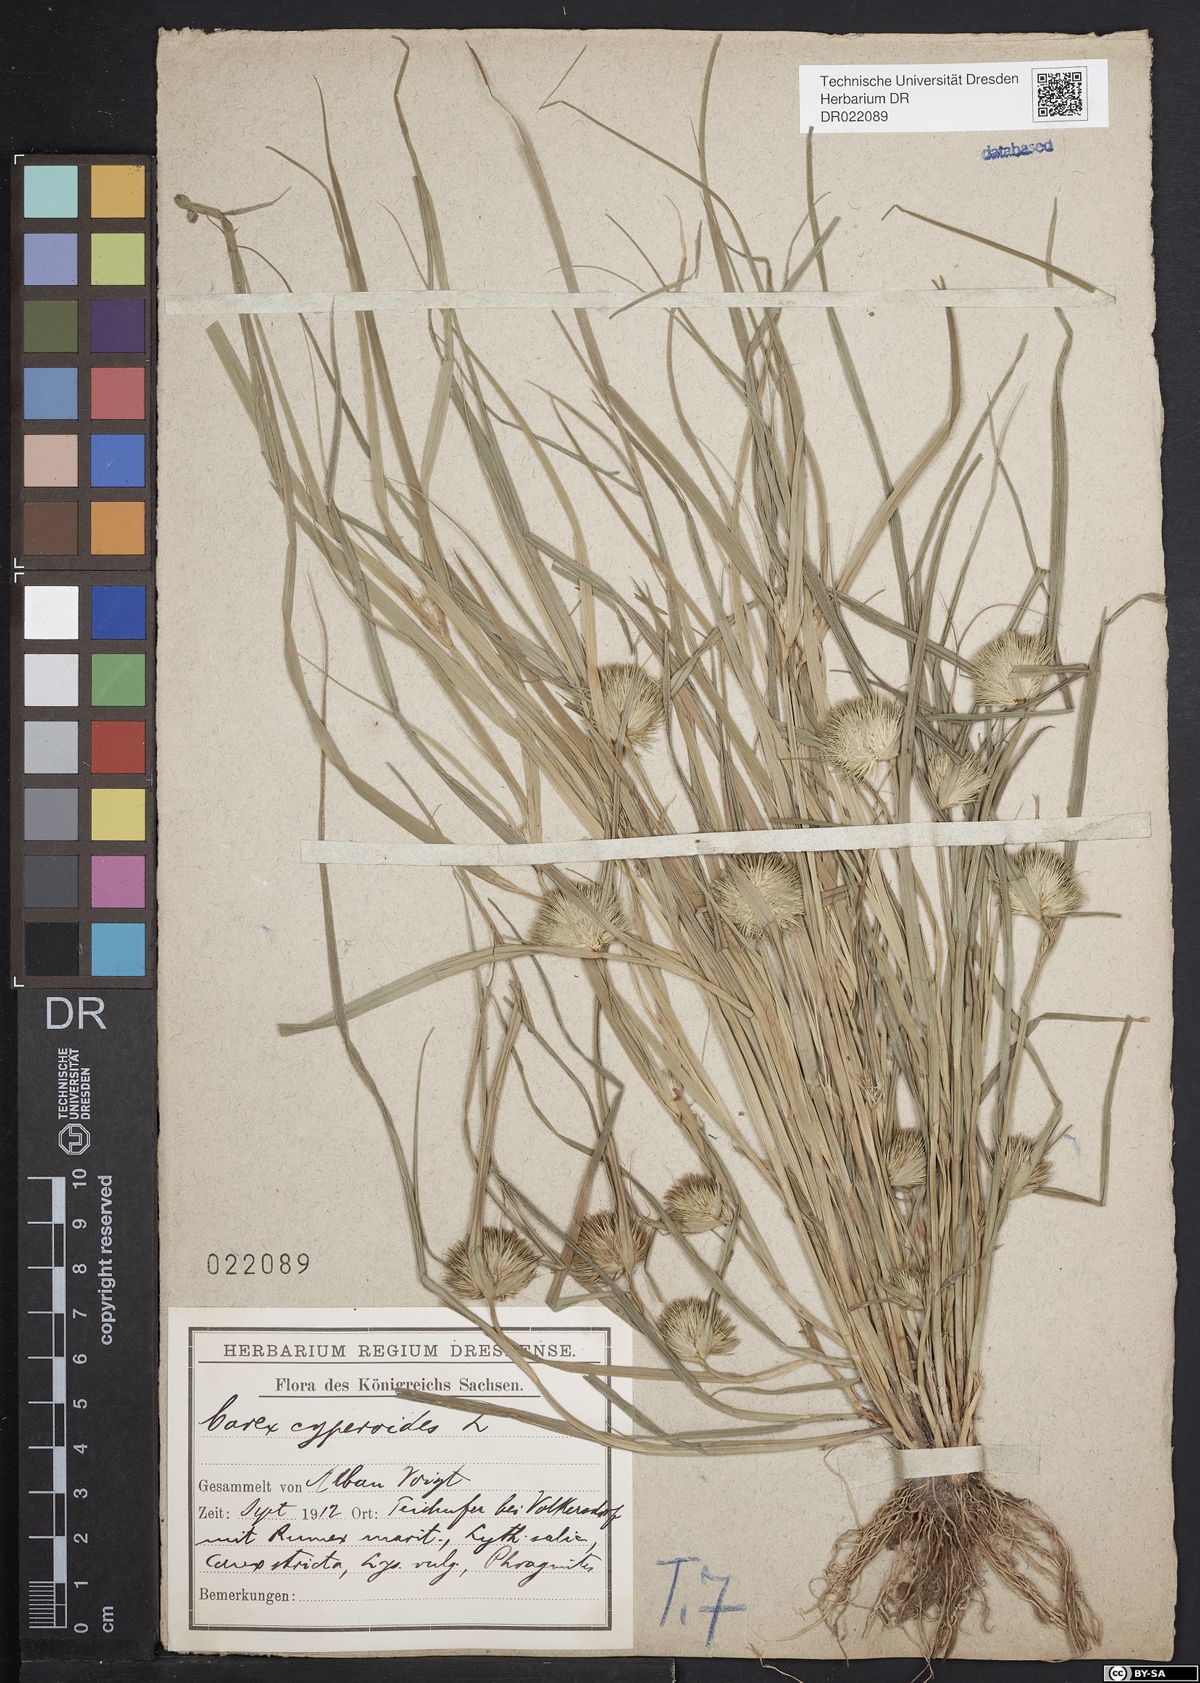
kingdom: Plantae
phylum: Tracheophyta
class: Liliopsida
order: Poales
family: Cyperaceae
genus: Carex
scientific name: Carex bohemica
